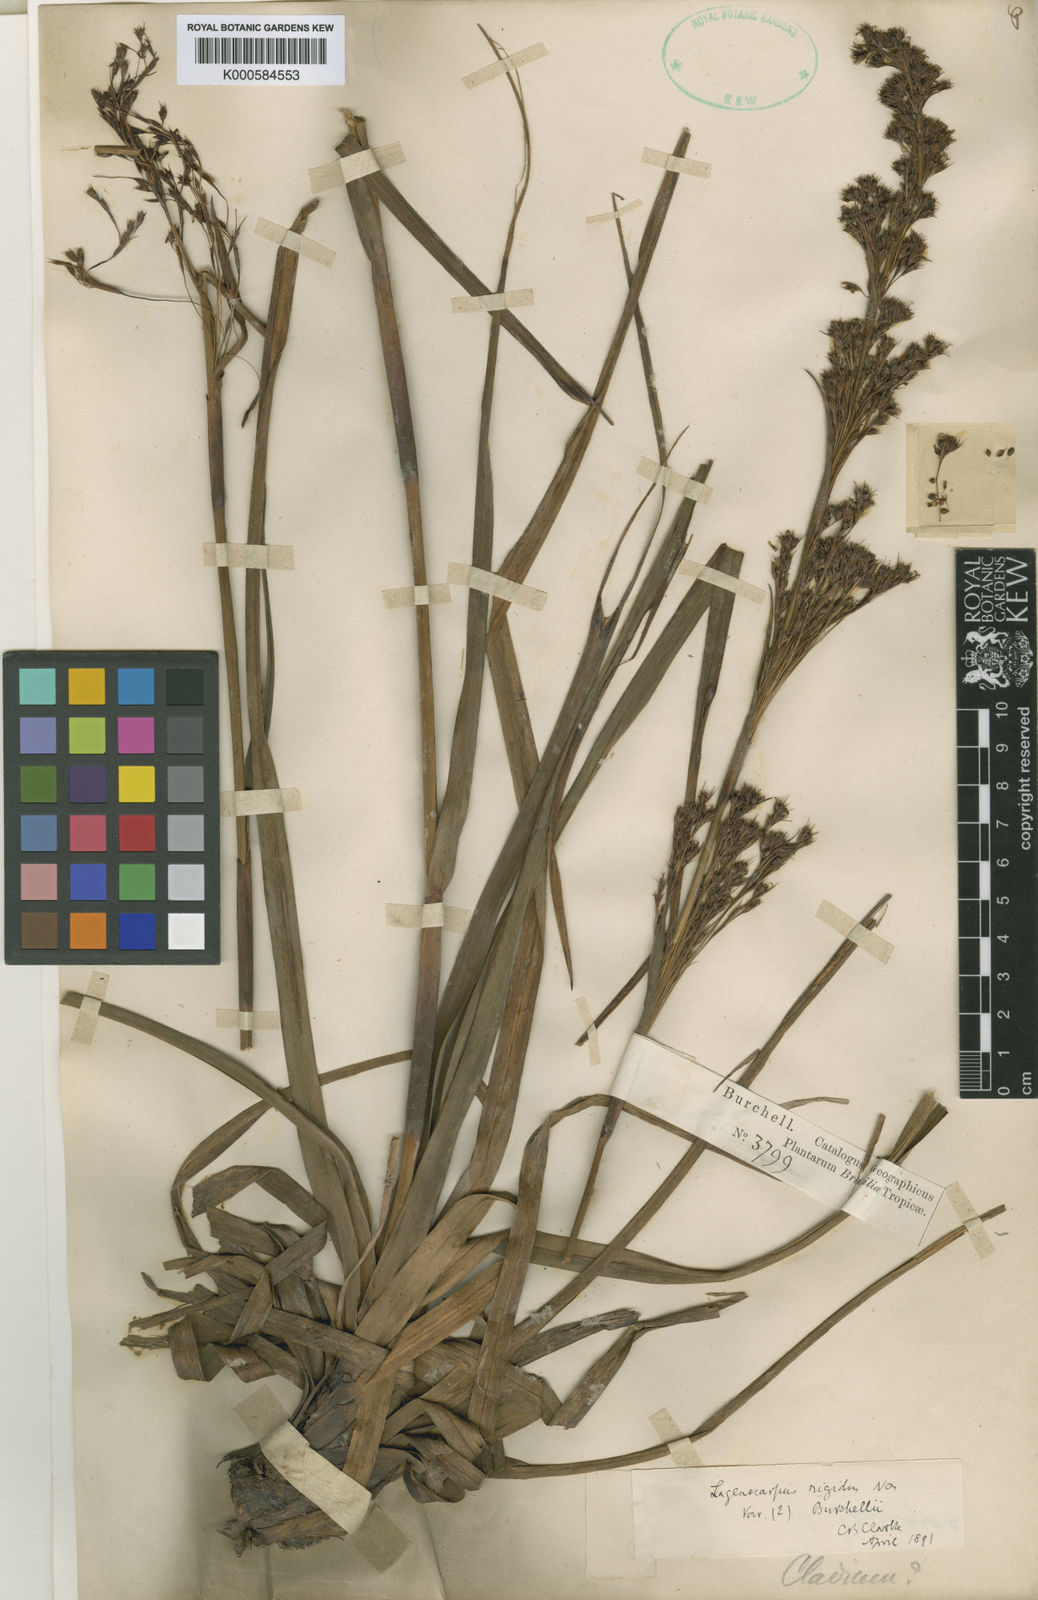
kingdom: Plantae
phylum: Tracheophyta
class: Liliopsida
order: Poales
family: Cyperaceae
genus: Lagenocarpus
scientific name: Lagenocarpus rigidus
